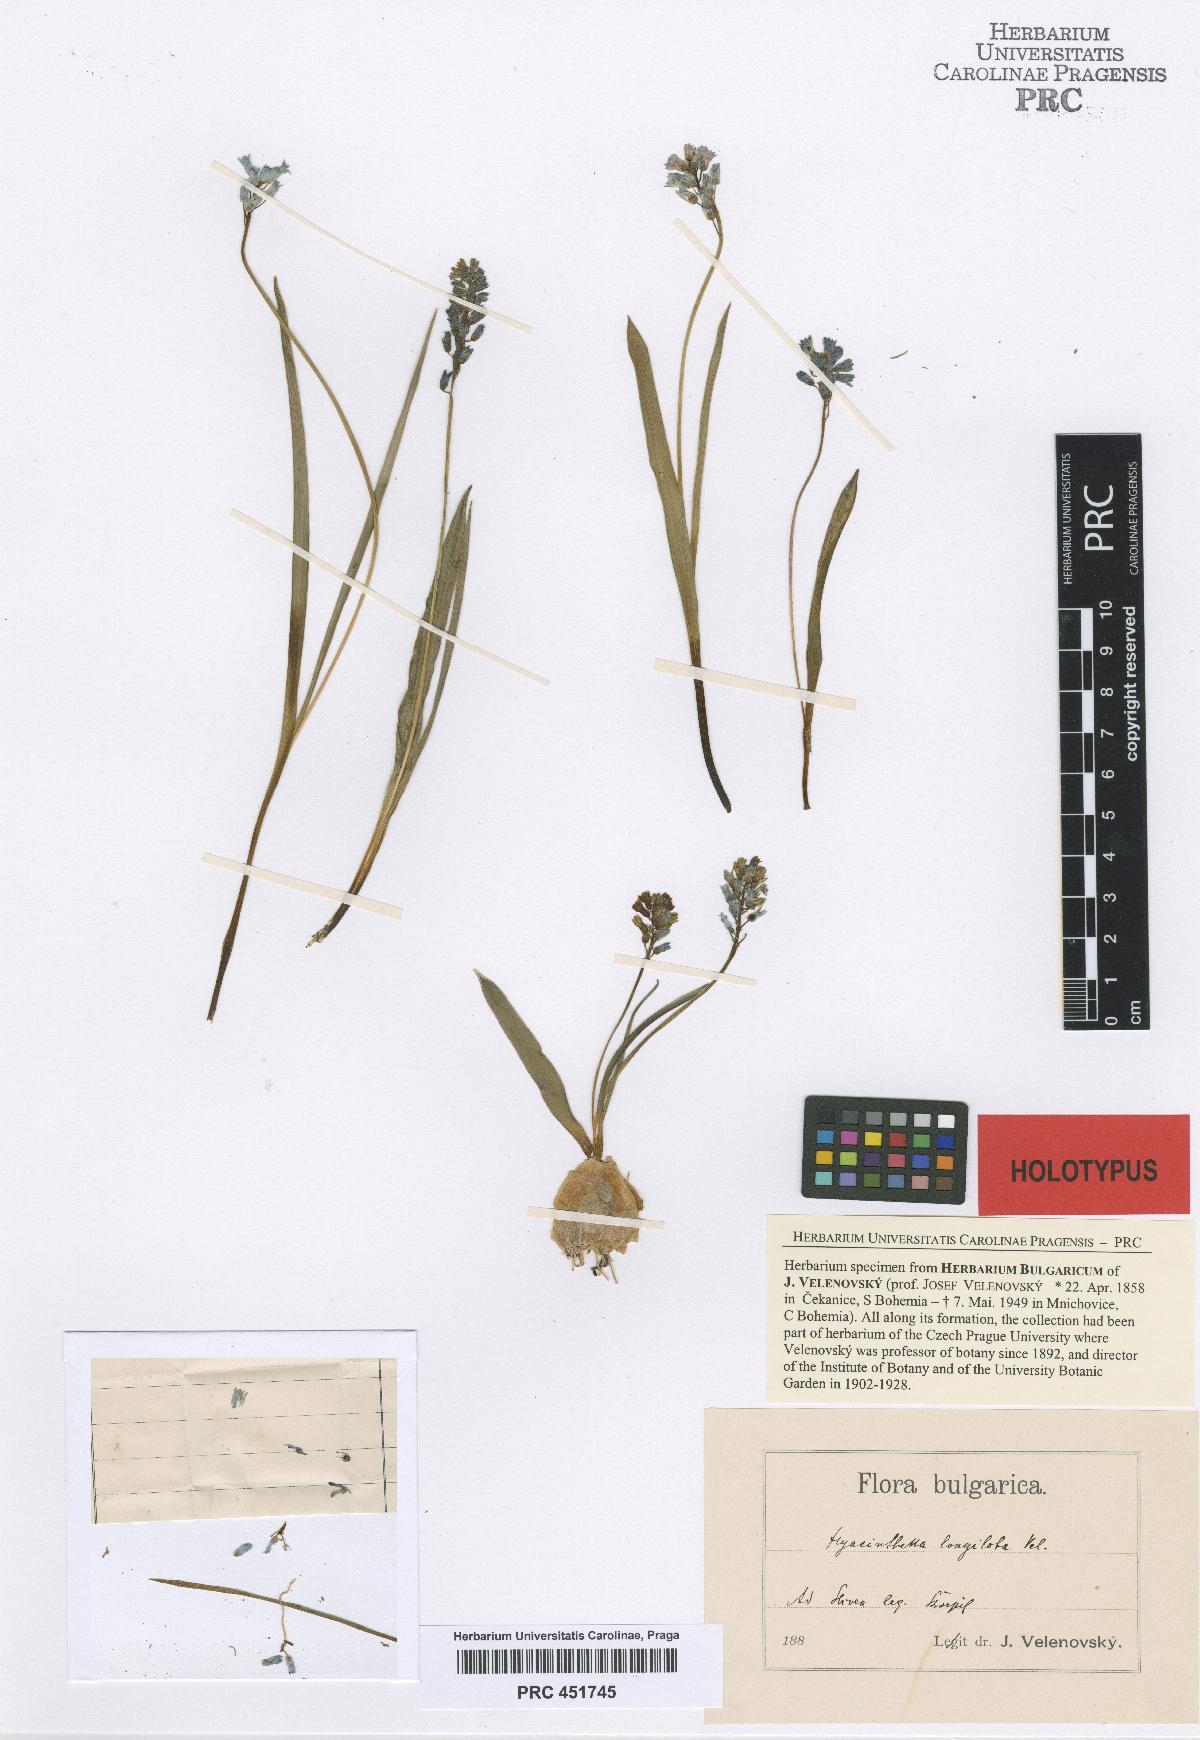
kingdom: Plantae
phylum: Tracheophyta
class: Liliopsida
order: Asparagales
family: Asparagaceae
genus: Hyacinthella
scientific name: Hyacinthella leucophaea
